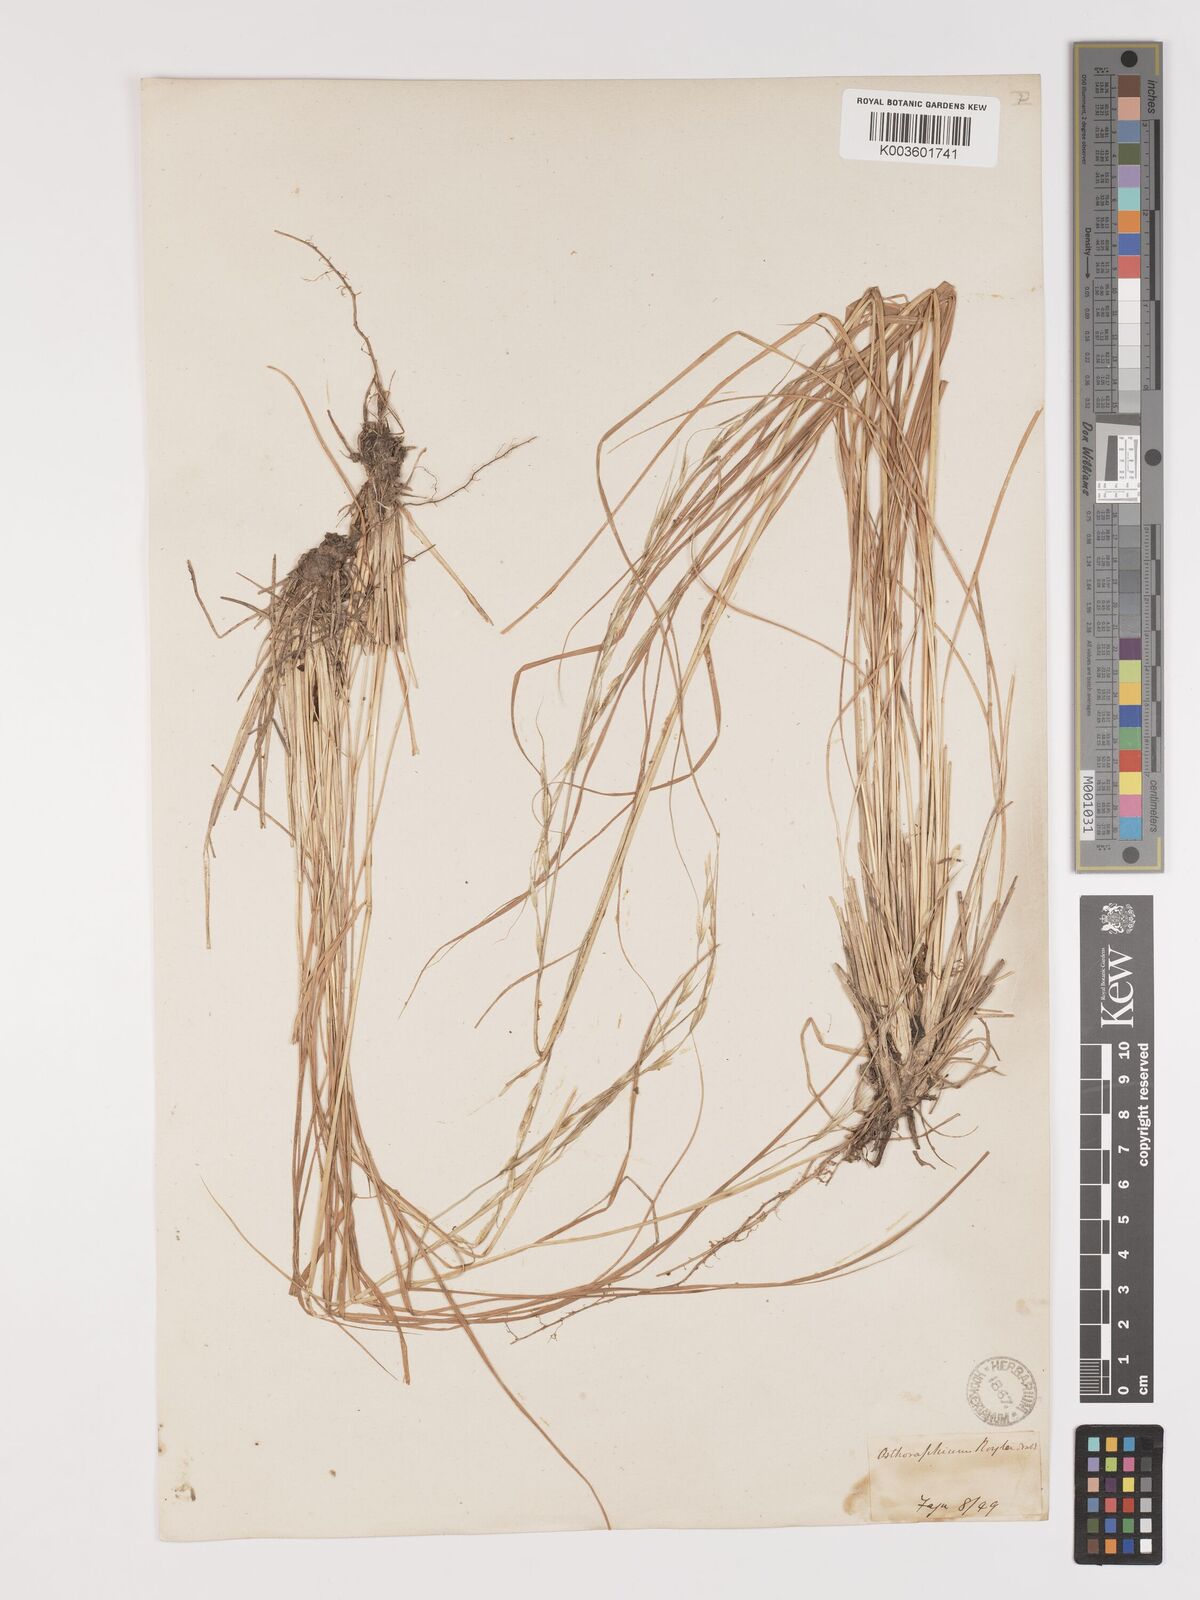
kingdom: Plantae
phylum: Tracheophyta
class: Liliopsida
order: Poales
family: Poaceae
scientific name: Poaceae
